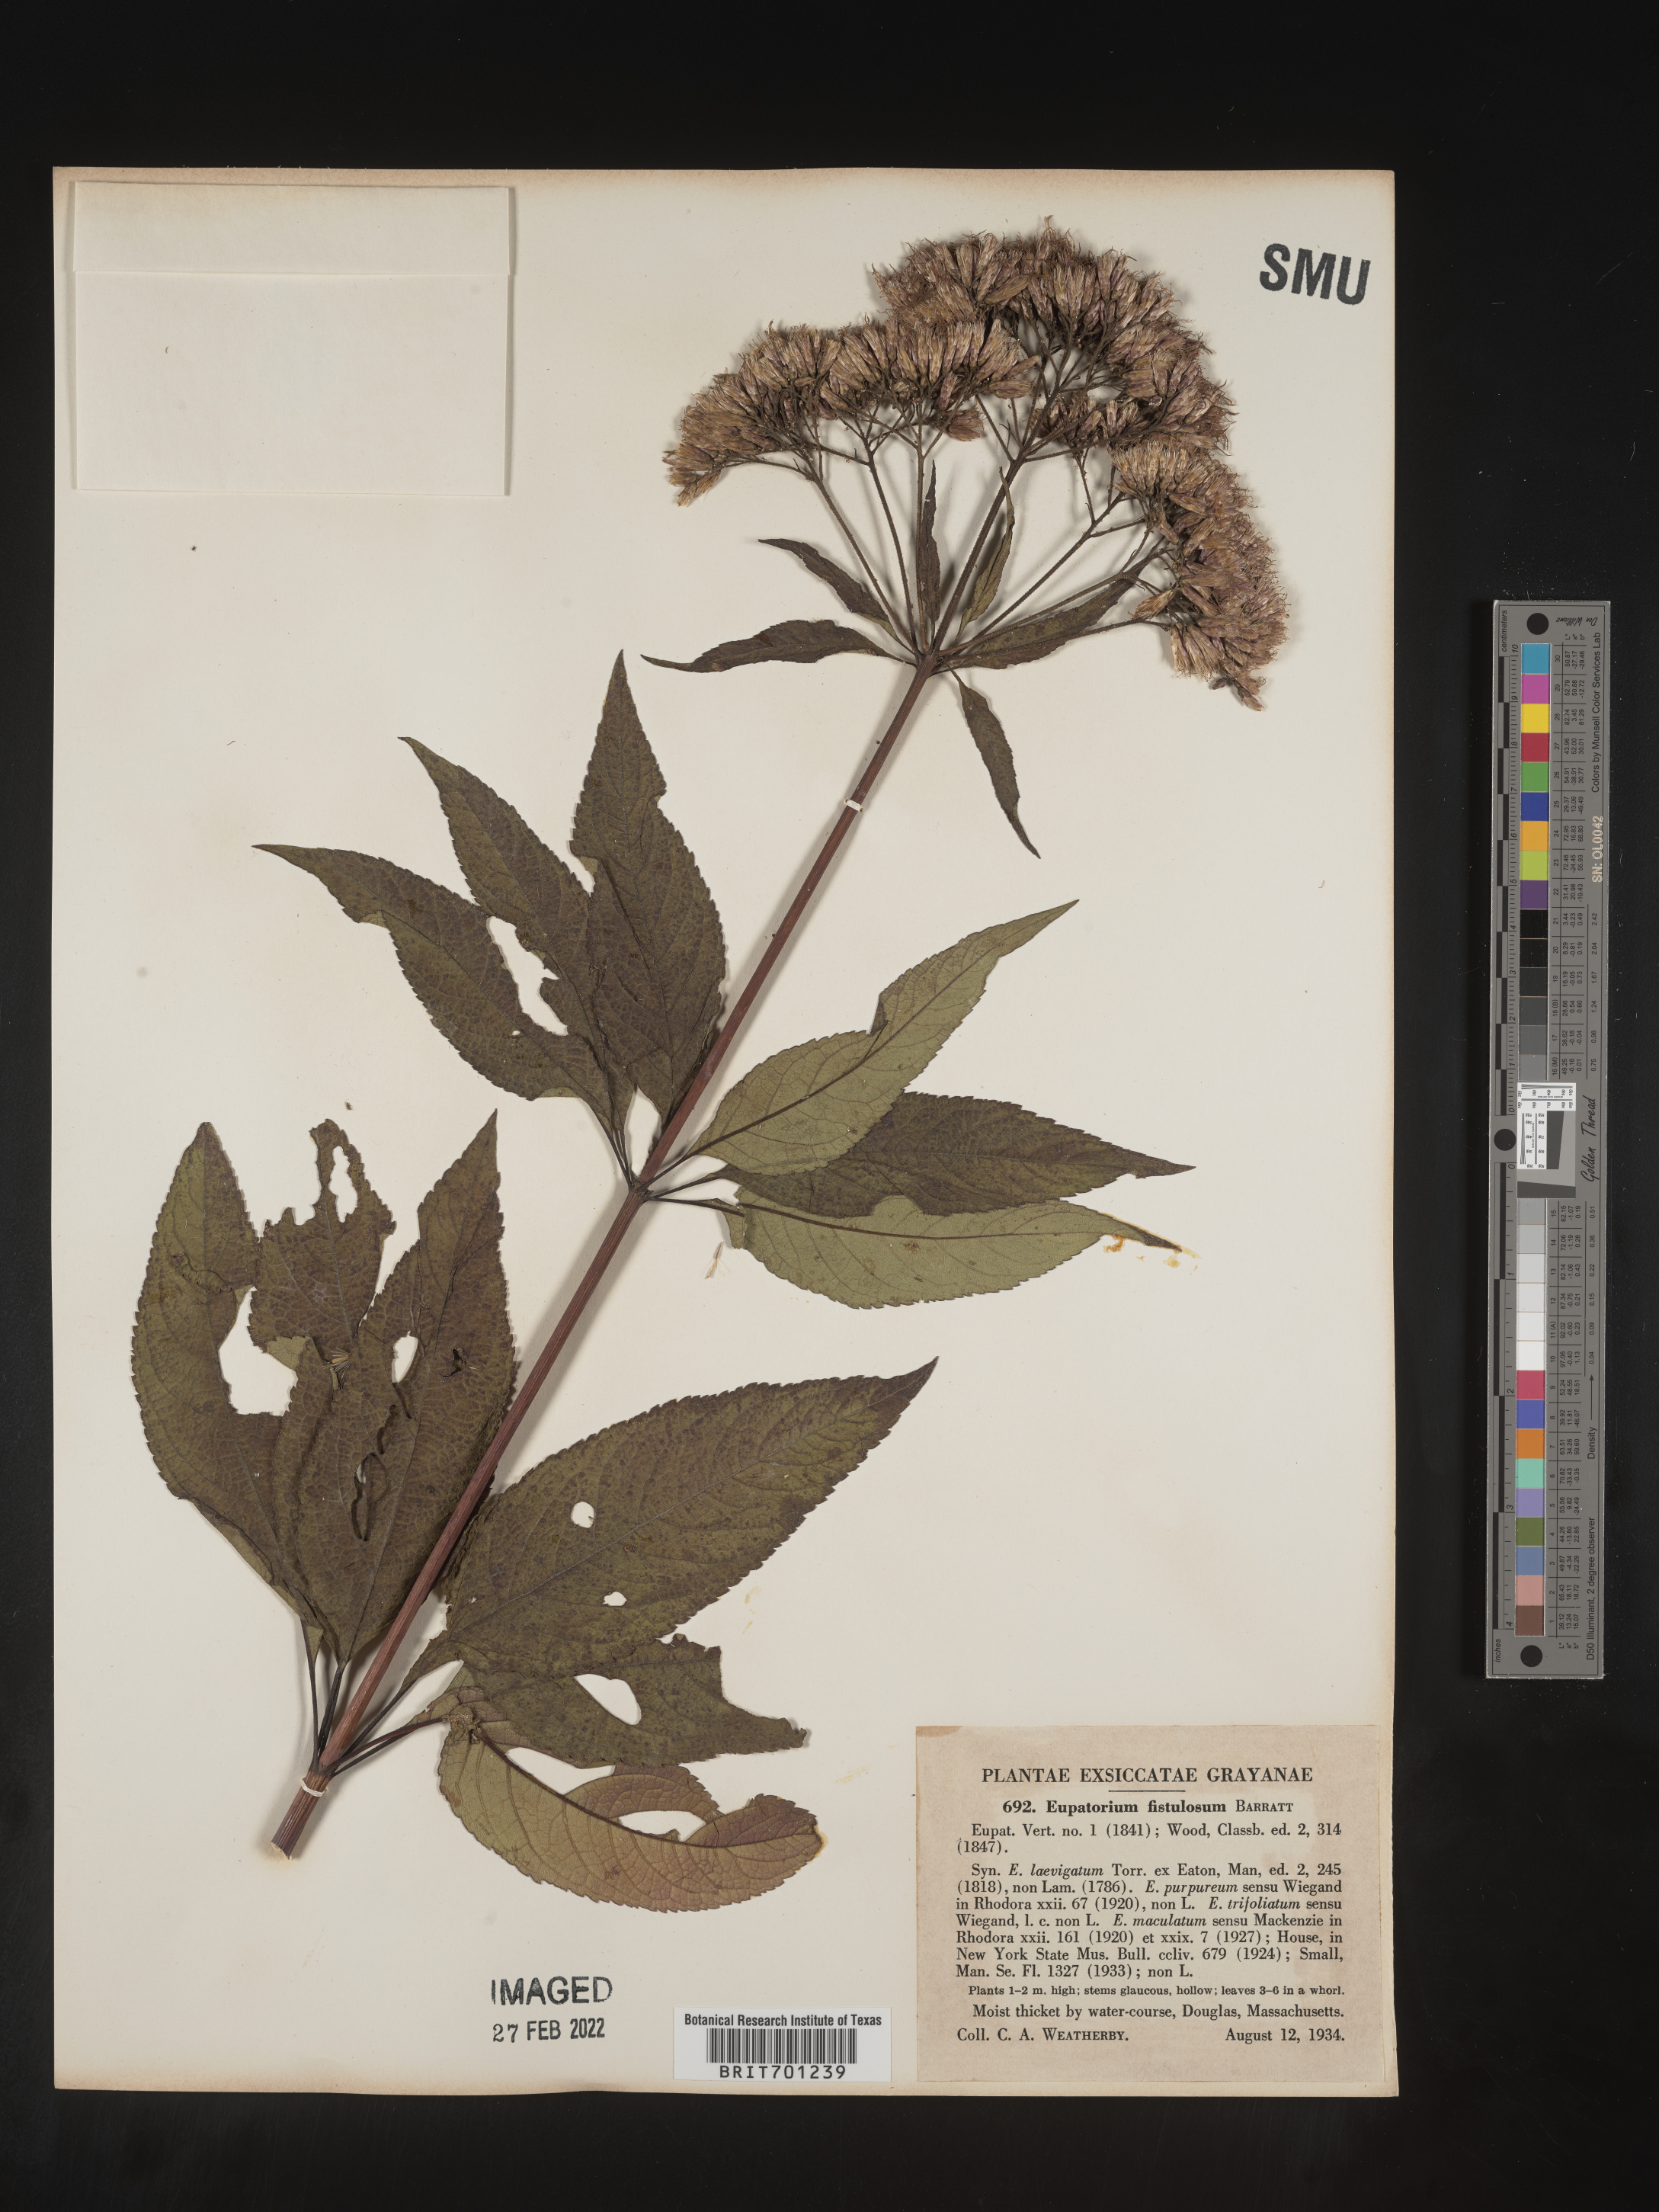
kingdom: Plantae
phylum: Tracheophyta
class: Magnoliopsida
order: Asterales
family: Asteraceae
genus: Eutrochium
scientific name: Eutrochium fistulosum
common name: Trumpetweed
